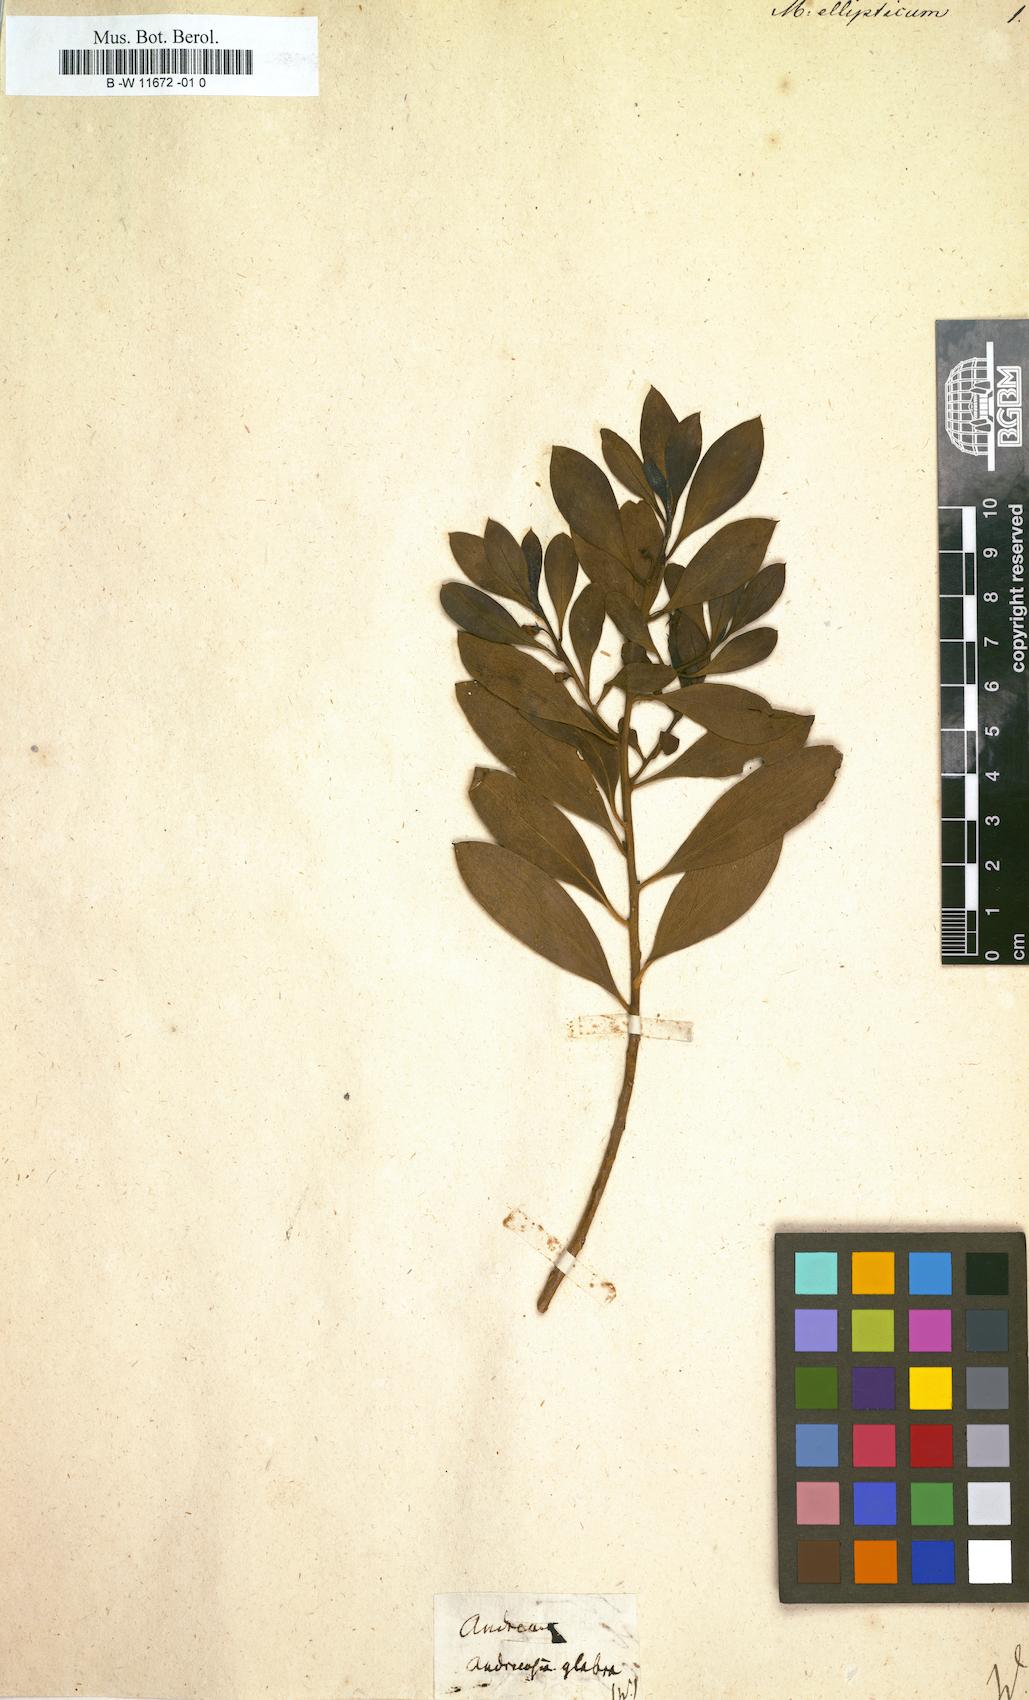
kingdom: Plantae
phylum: Tracheophyta
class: Magnoliopsida
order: Lamiales
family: Scrophulariaceae
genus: Myoporum
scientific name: Myoporum montanum
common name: Waterbush
